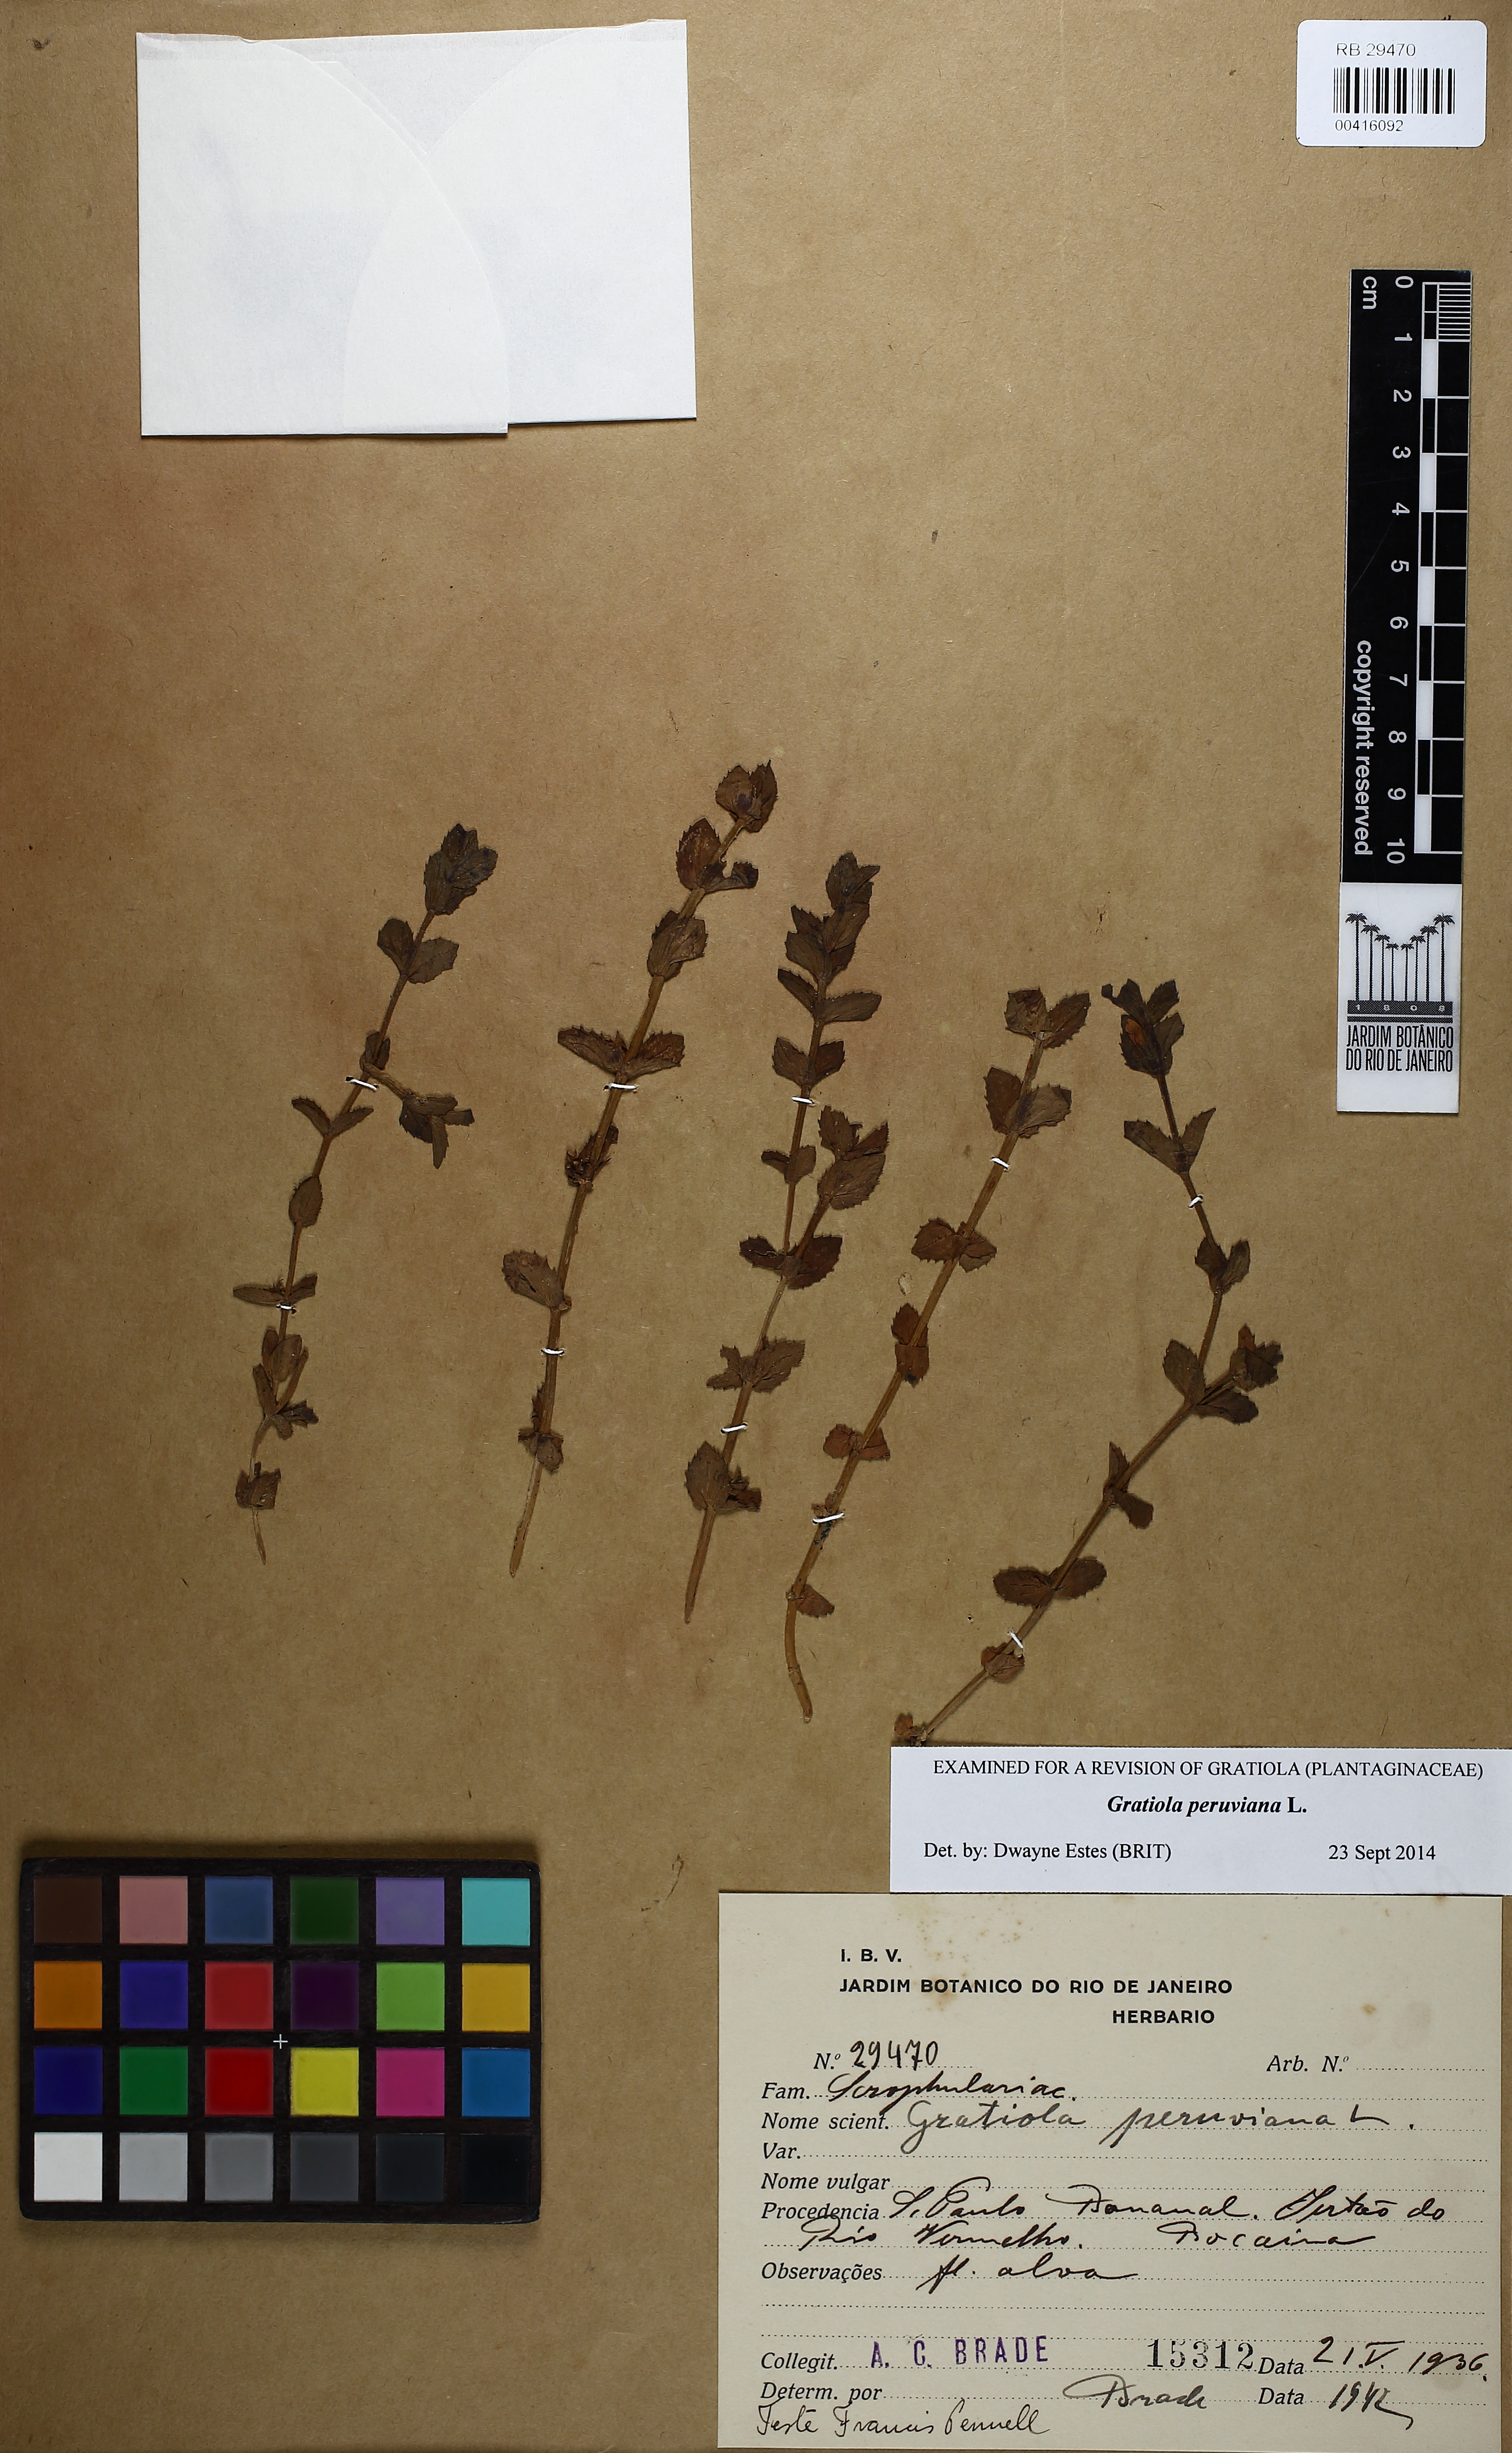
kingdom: Plantae
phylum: Tracheophyta
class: Magnoliopsida
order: Lamiales
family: Plantaginaceae
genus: Gratiola
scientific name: Gratiola peruviana
